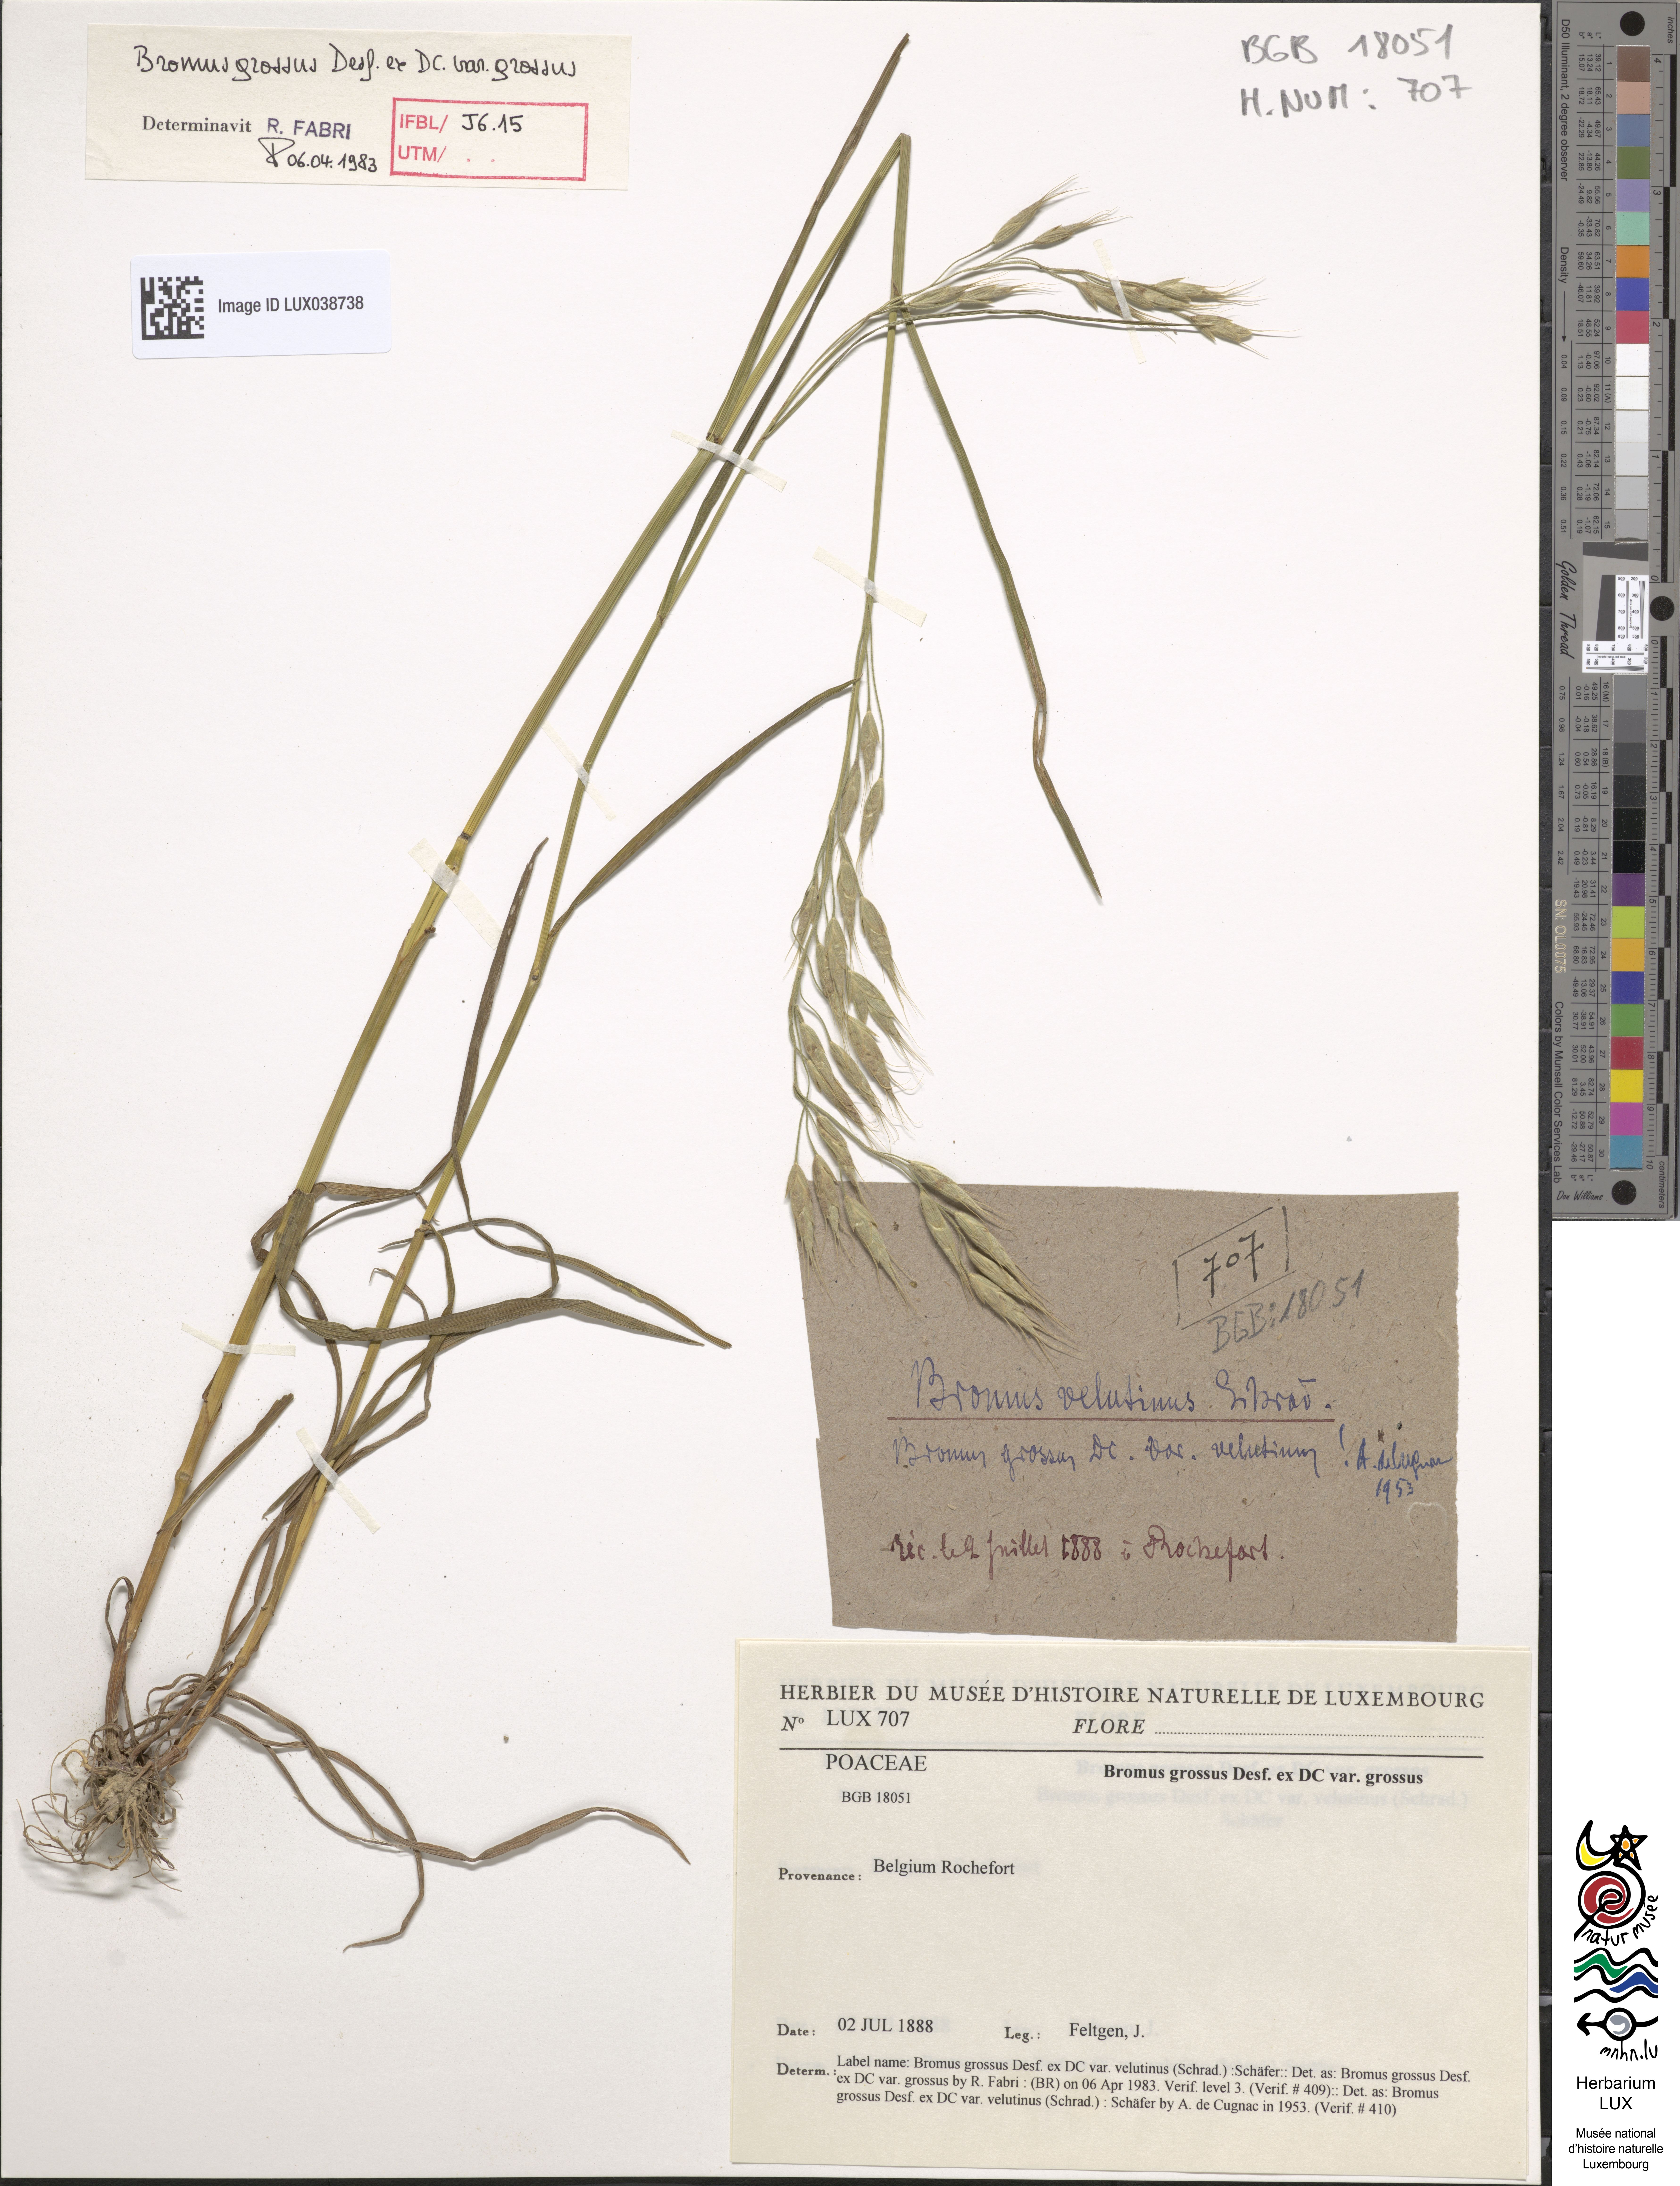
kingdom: Plantae
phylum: Tracheophyta
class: Liliopsida
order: Poales
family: Poaceae
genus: Bromus
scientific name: Bromus grossus
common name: Whiskered brome
